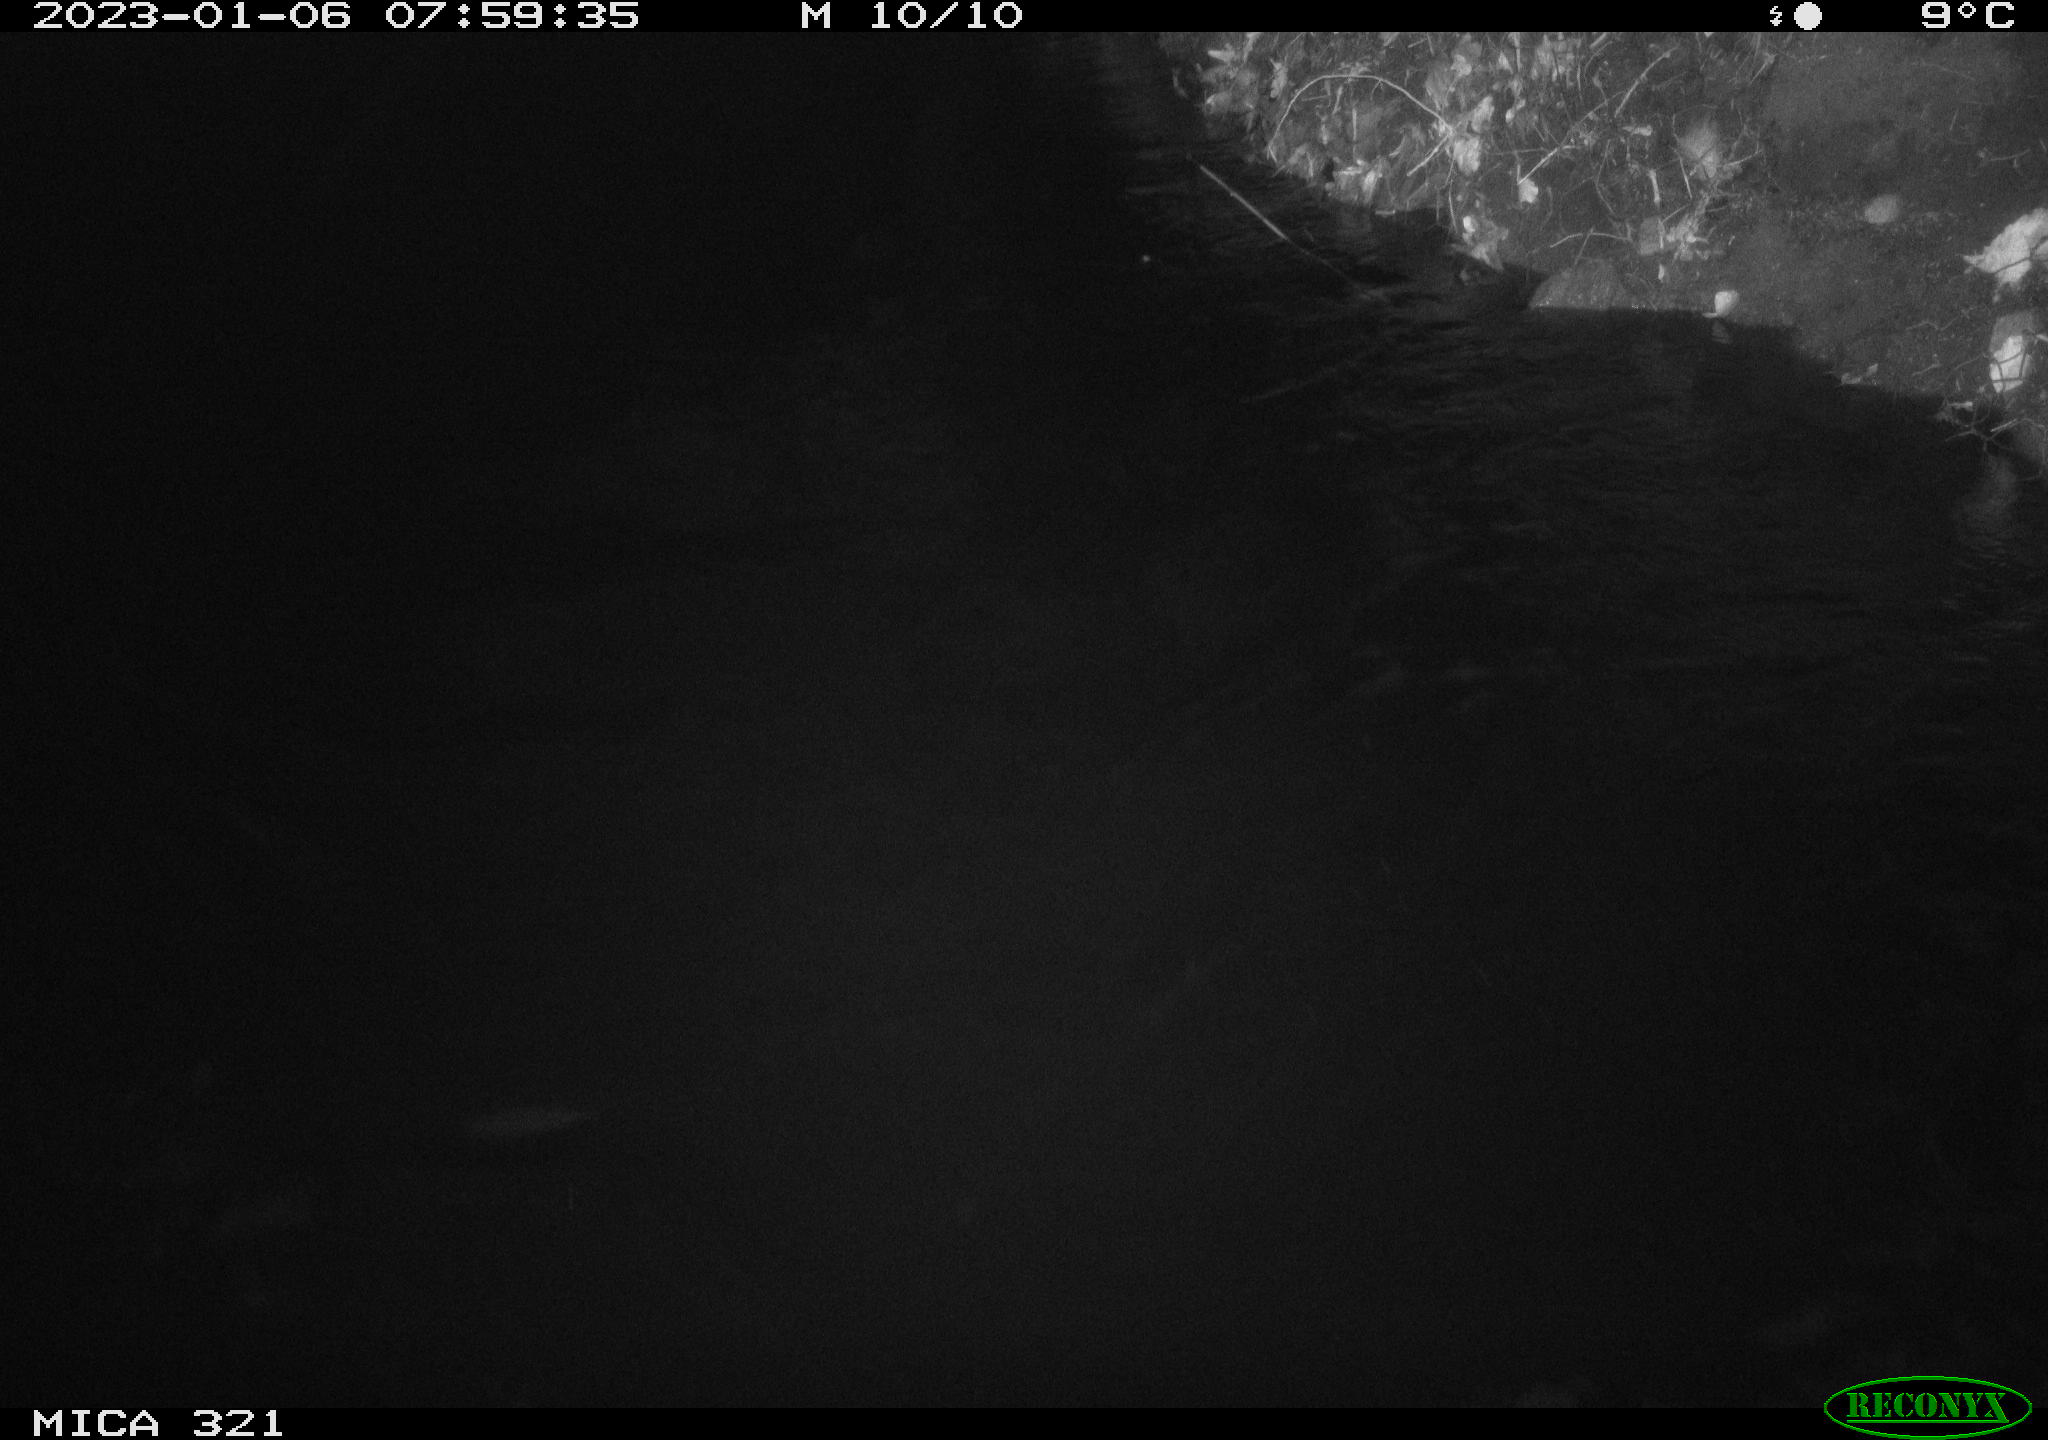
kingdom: Animalia
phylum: Chordata
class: Mammalia
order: Rodentia
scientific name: Rodentia
